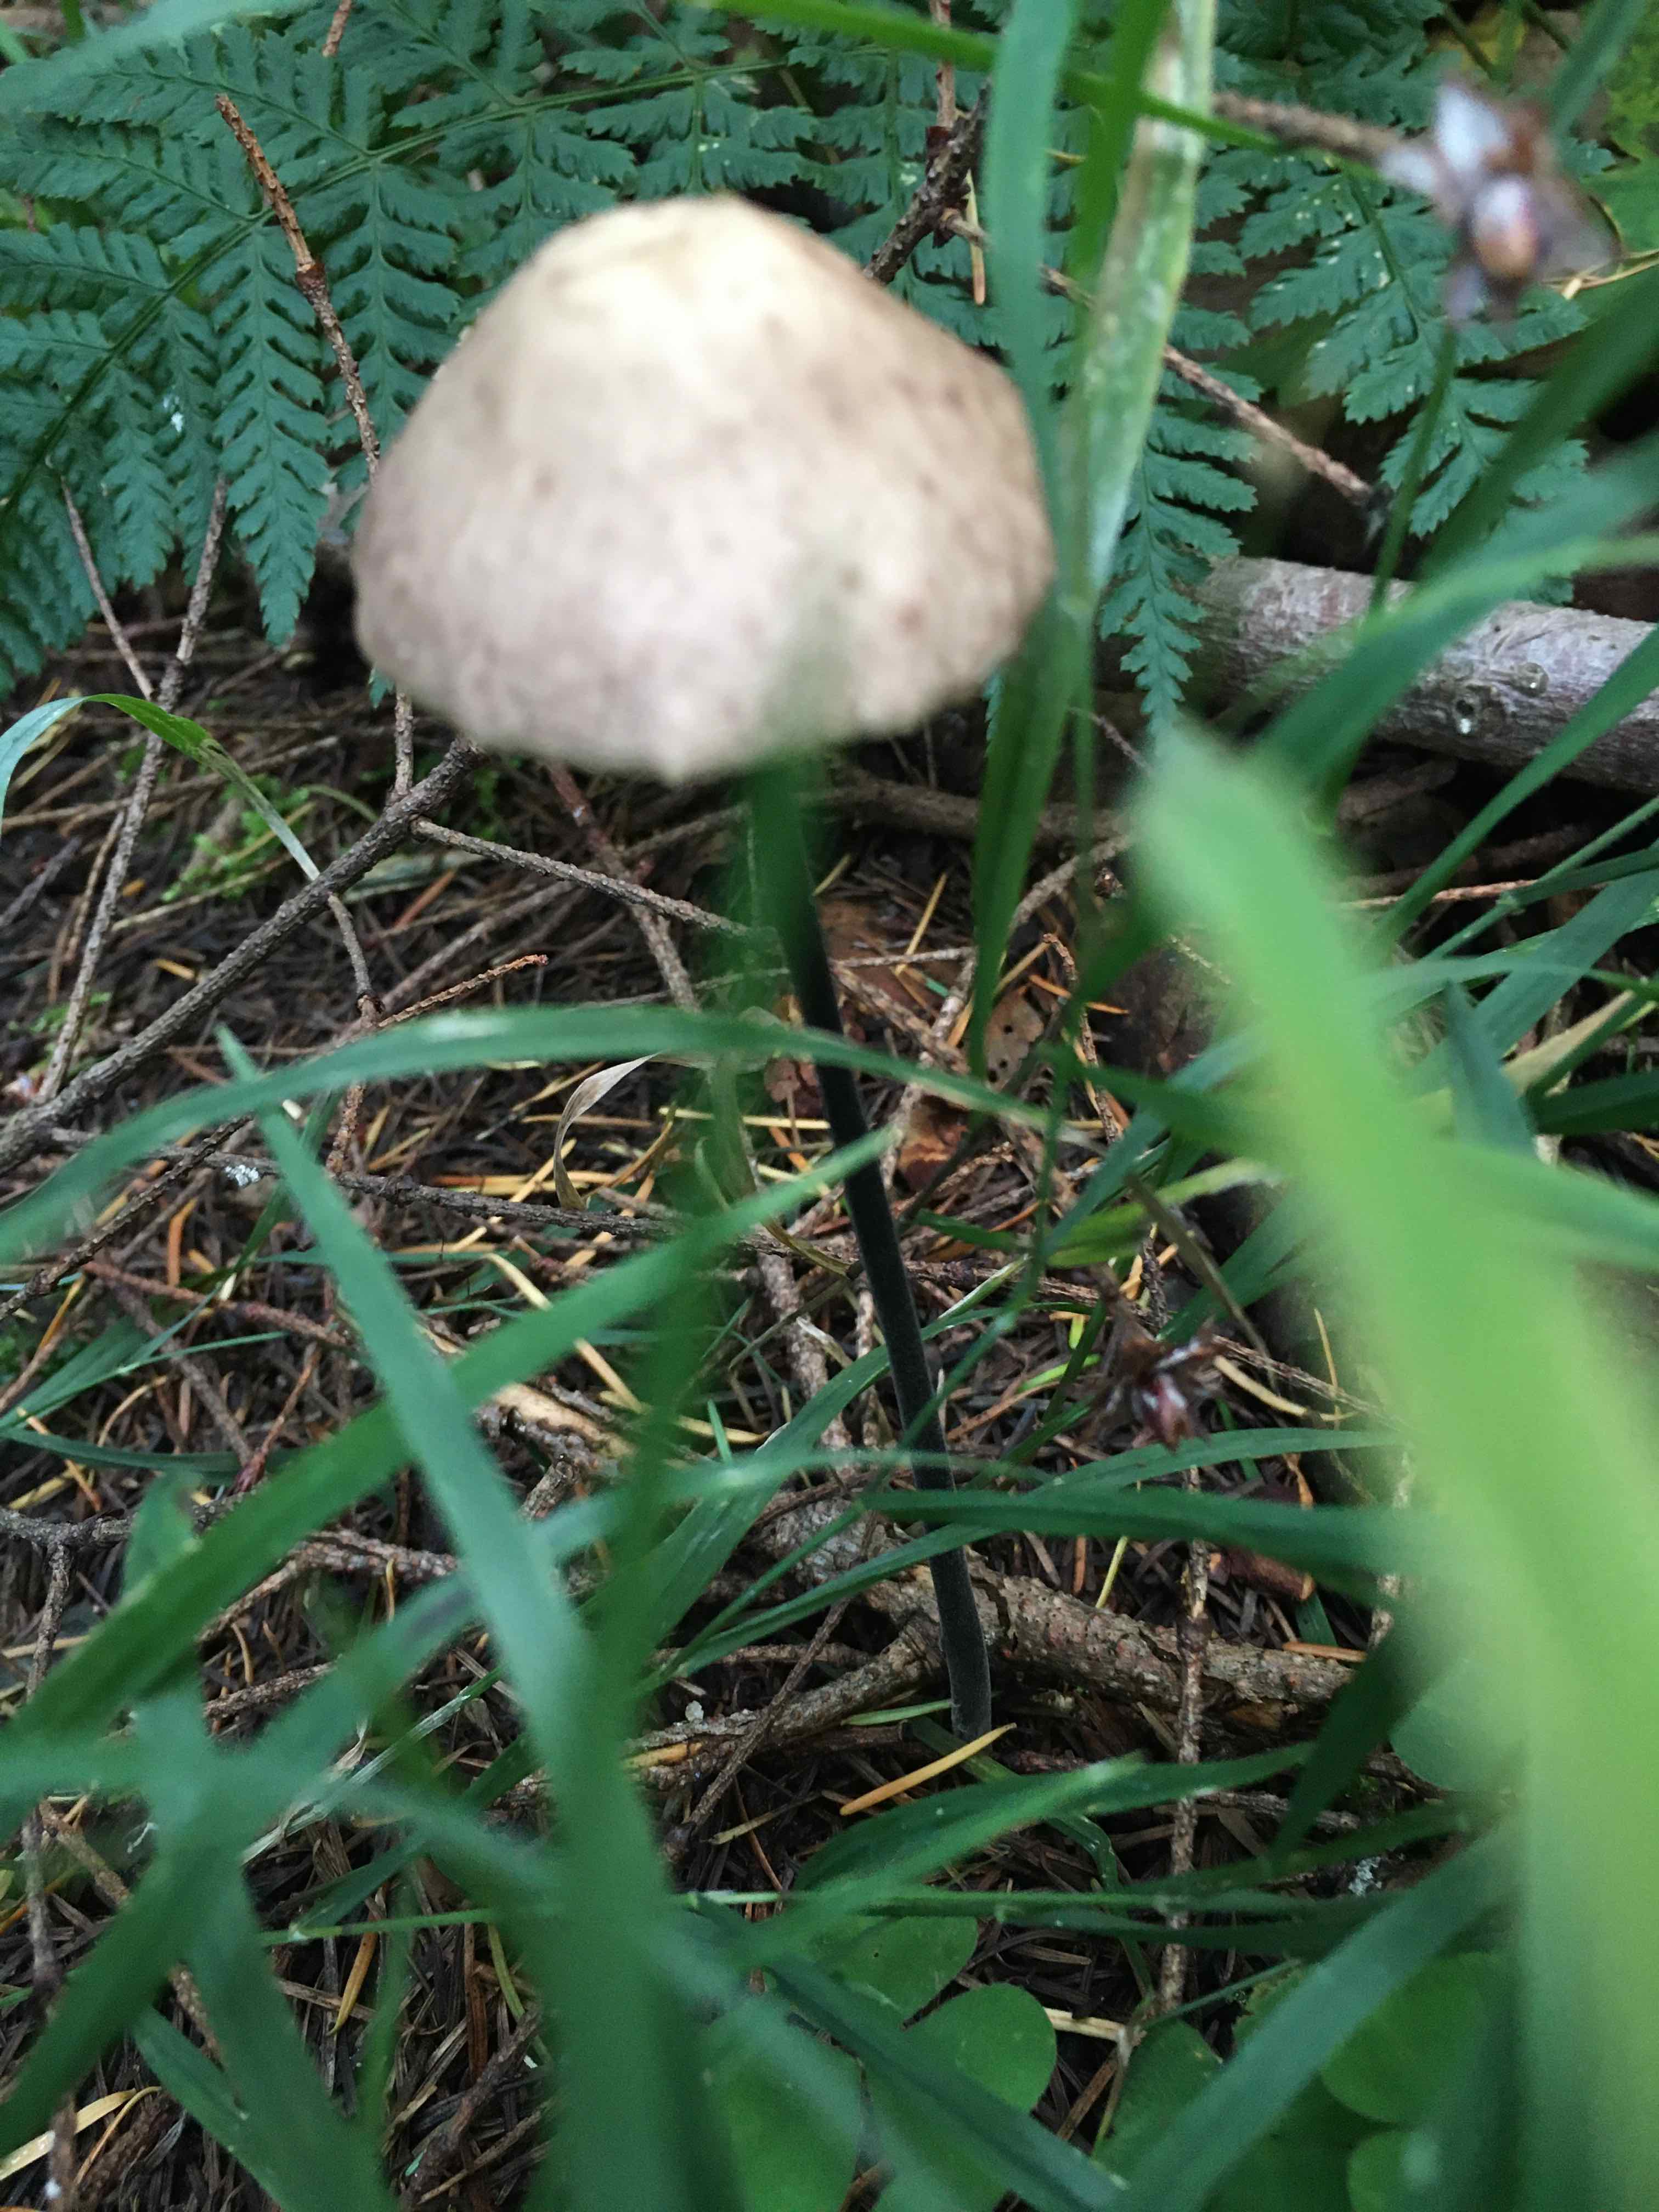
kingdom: Fungi
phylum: Basidiomycota
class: Agaricomycetes
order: Agaricales
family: Omphalotaceae
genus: Mycetinis
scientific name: Mycetinis alliaceus
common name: stor løghat
